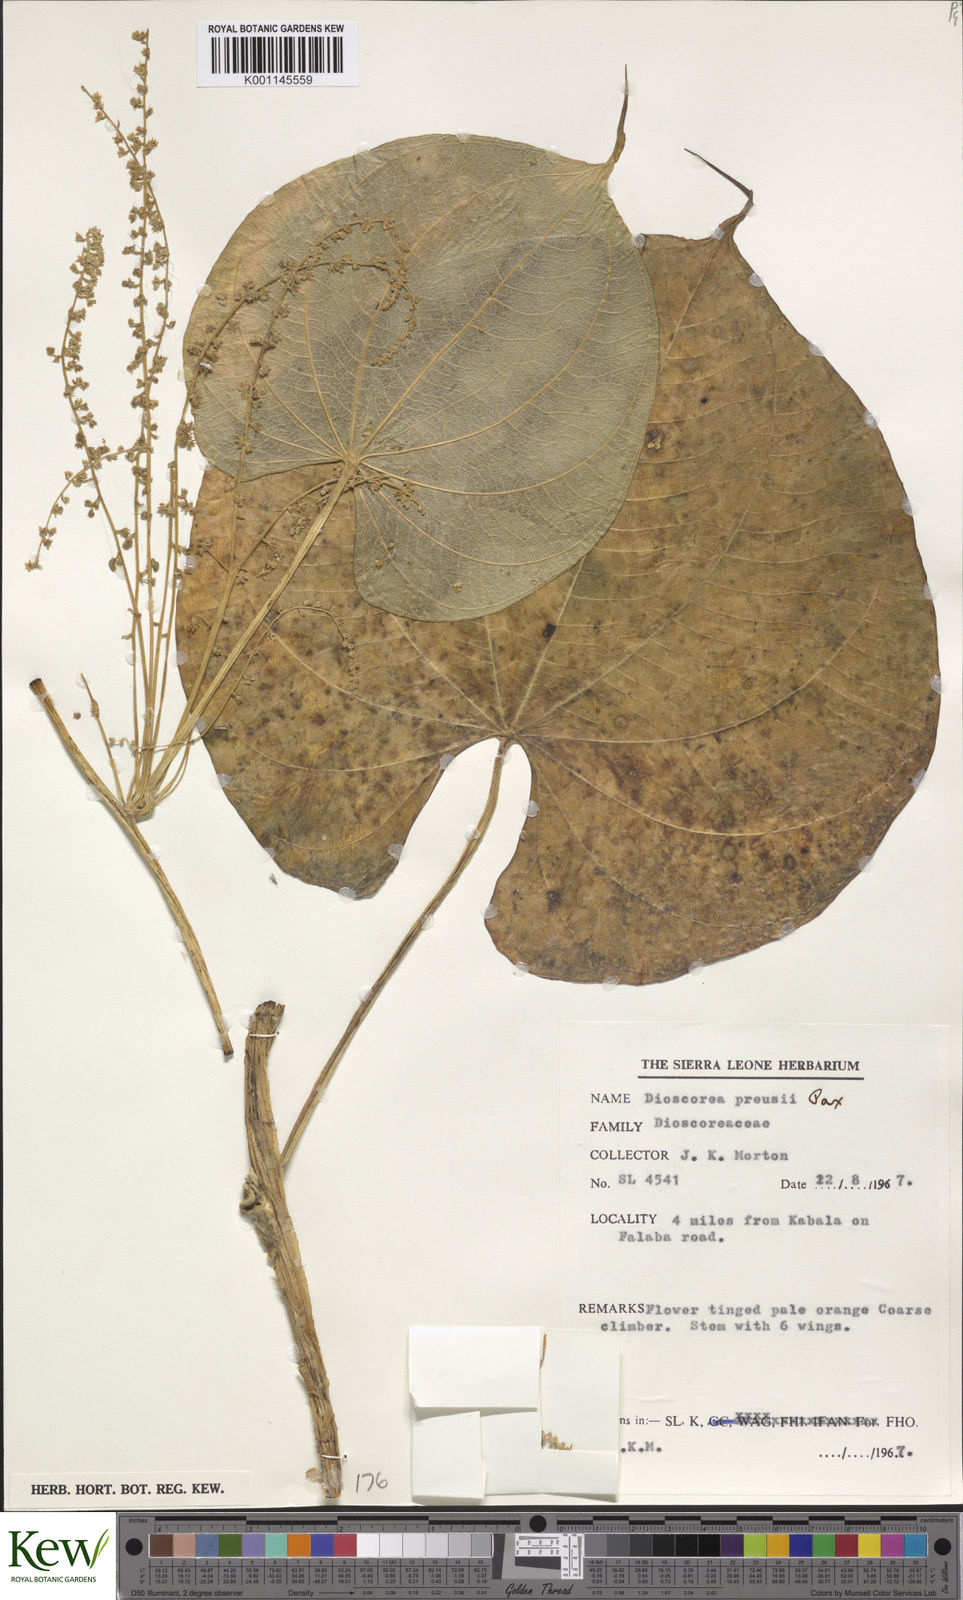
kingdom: Plantae
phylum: Tracheophyta
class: Liliopsida
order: Dioscoreales
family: Dioscoreaceae
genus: Dioscorea
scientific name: Dioscorea preussii
